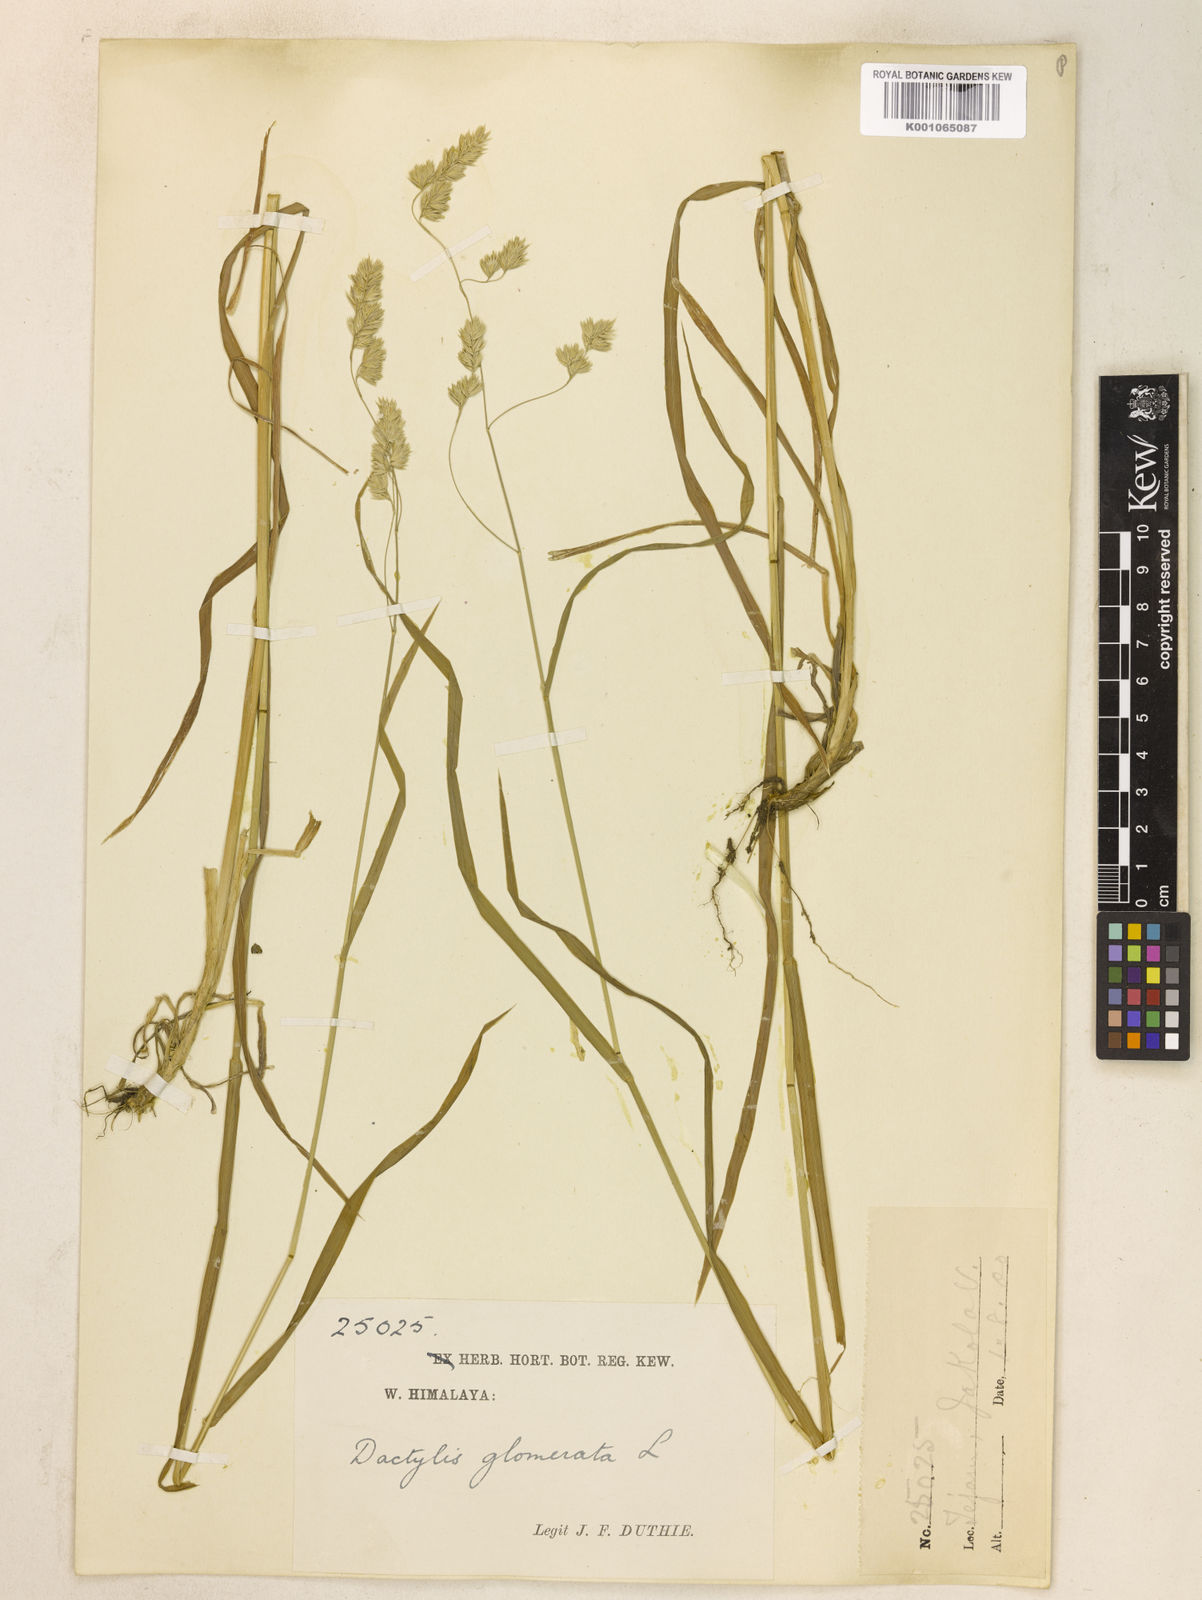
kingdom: Plantae
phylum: Tracheophyta
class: Liliopsida
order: Poales
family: Poaceae
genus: Dactylis
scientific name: Dactylis glomerata
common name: Orchardgrass
